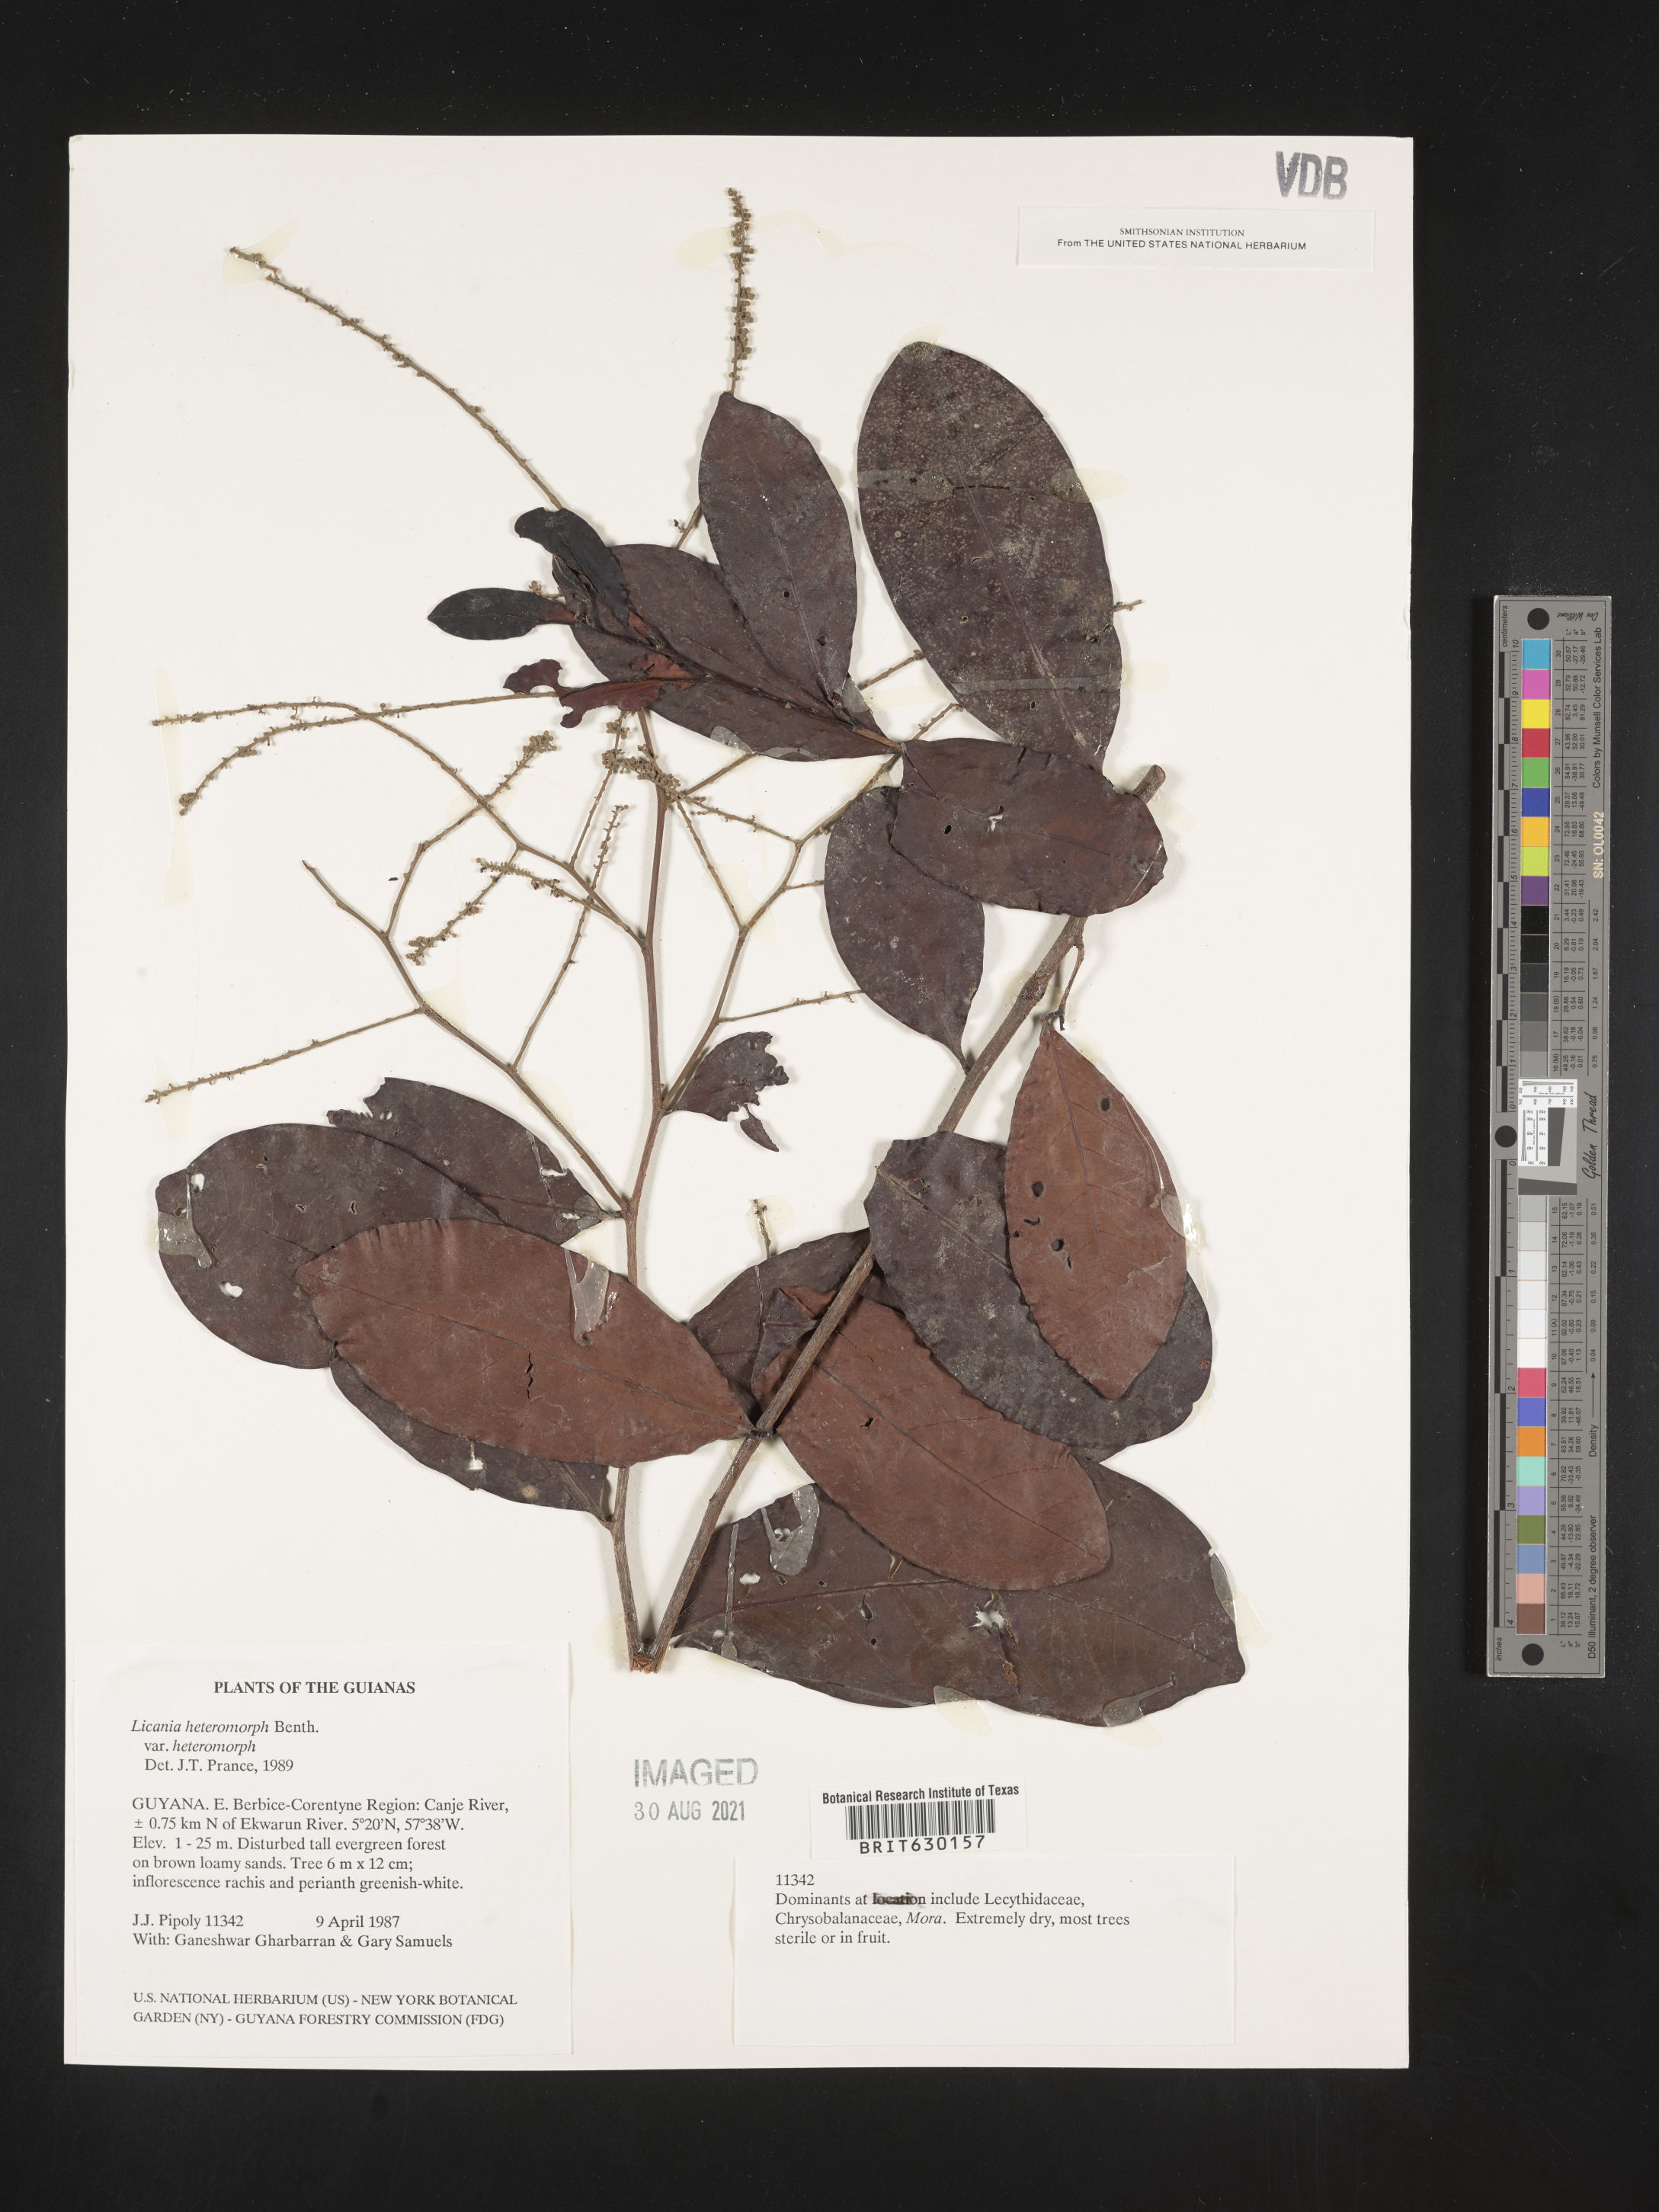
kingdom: Plantae
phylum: Tracheophyta
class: Magnoliopsida
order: Malpighiales
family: Chrysobalanaceae
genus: Hymenopus
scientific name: Hymenopus heteromorphus
